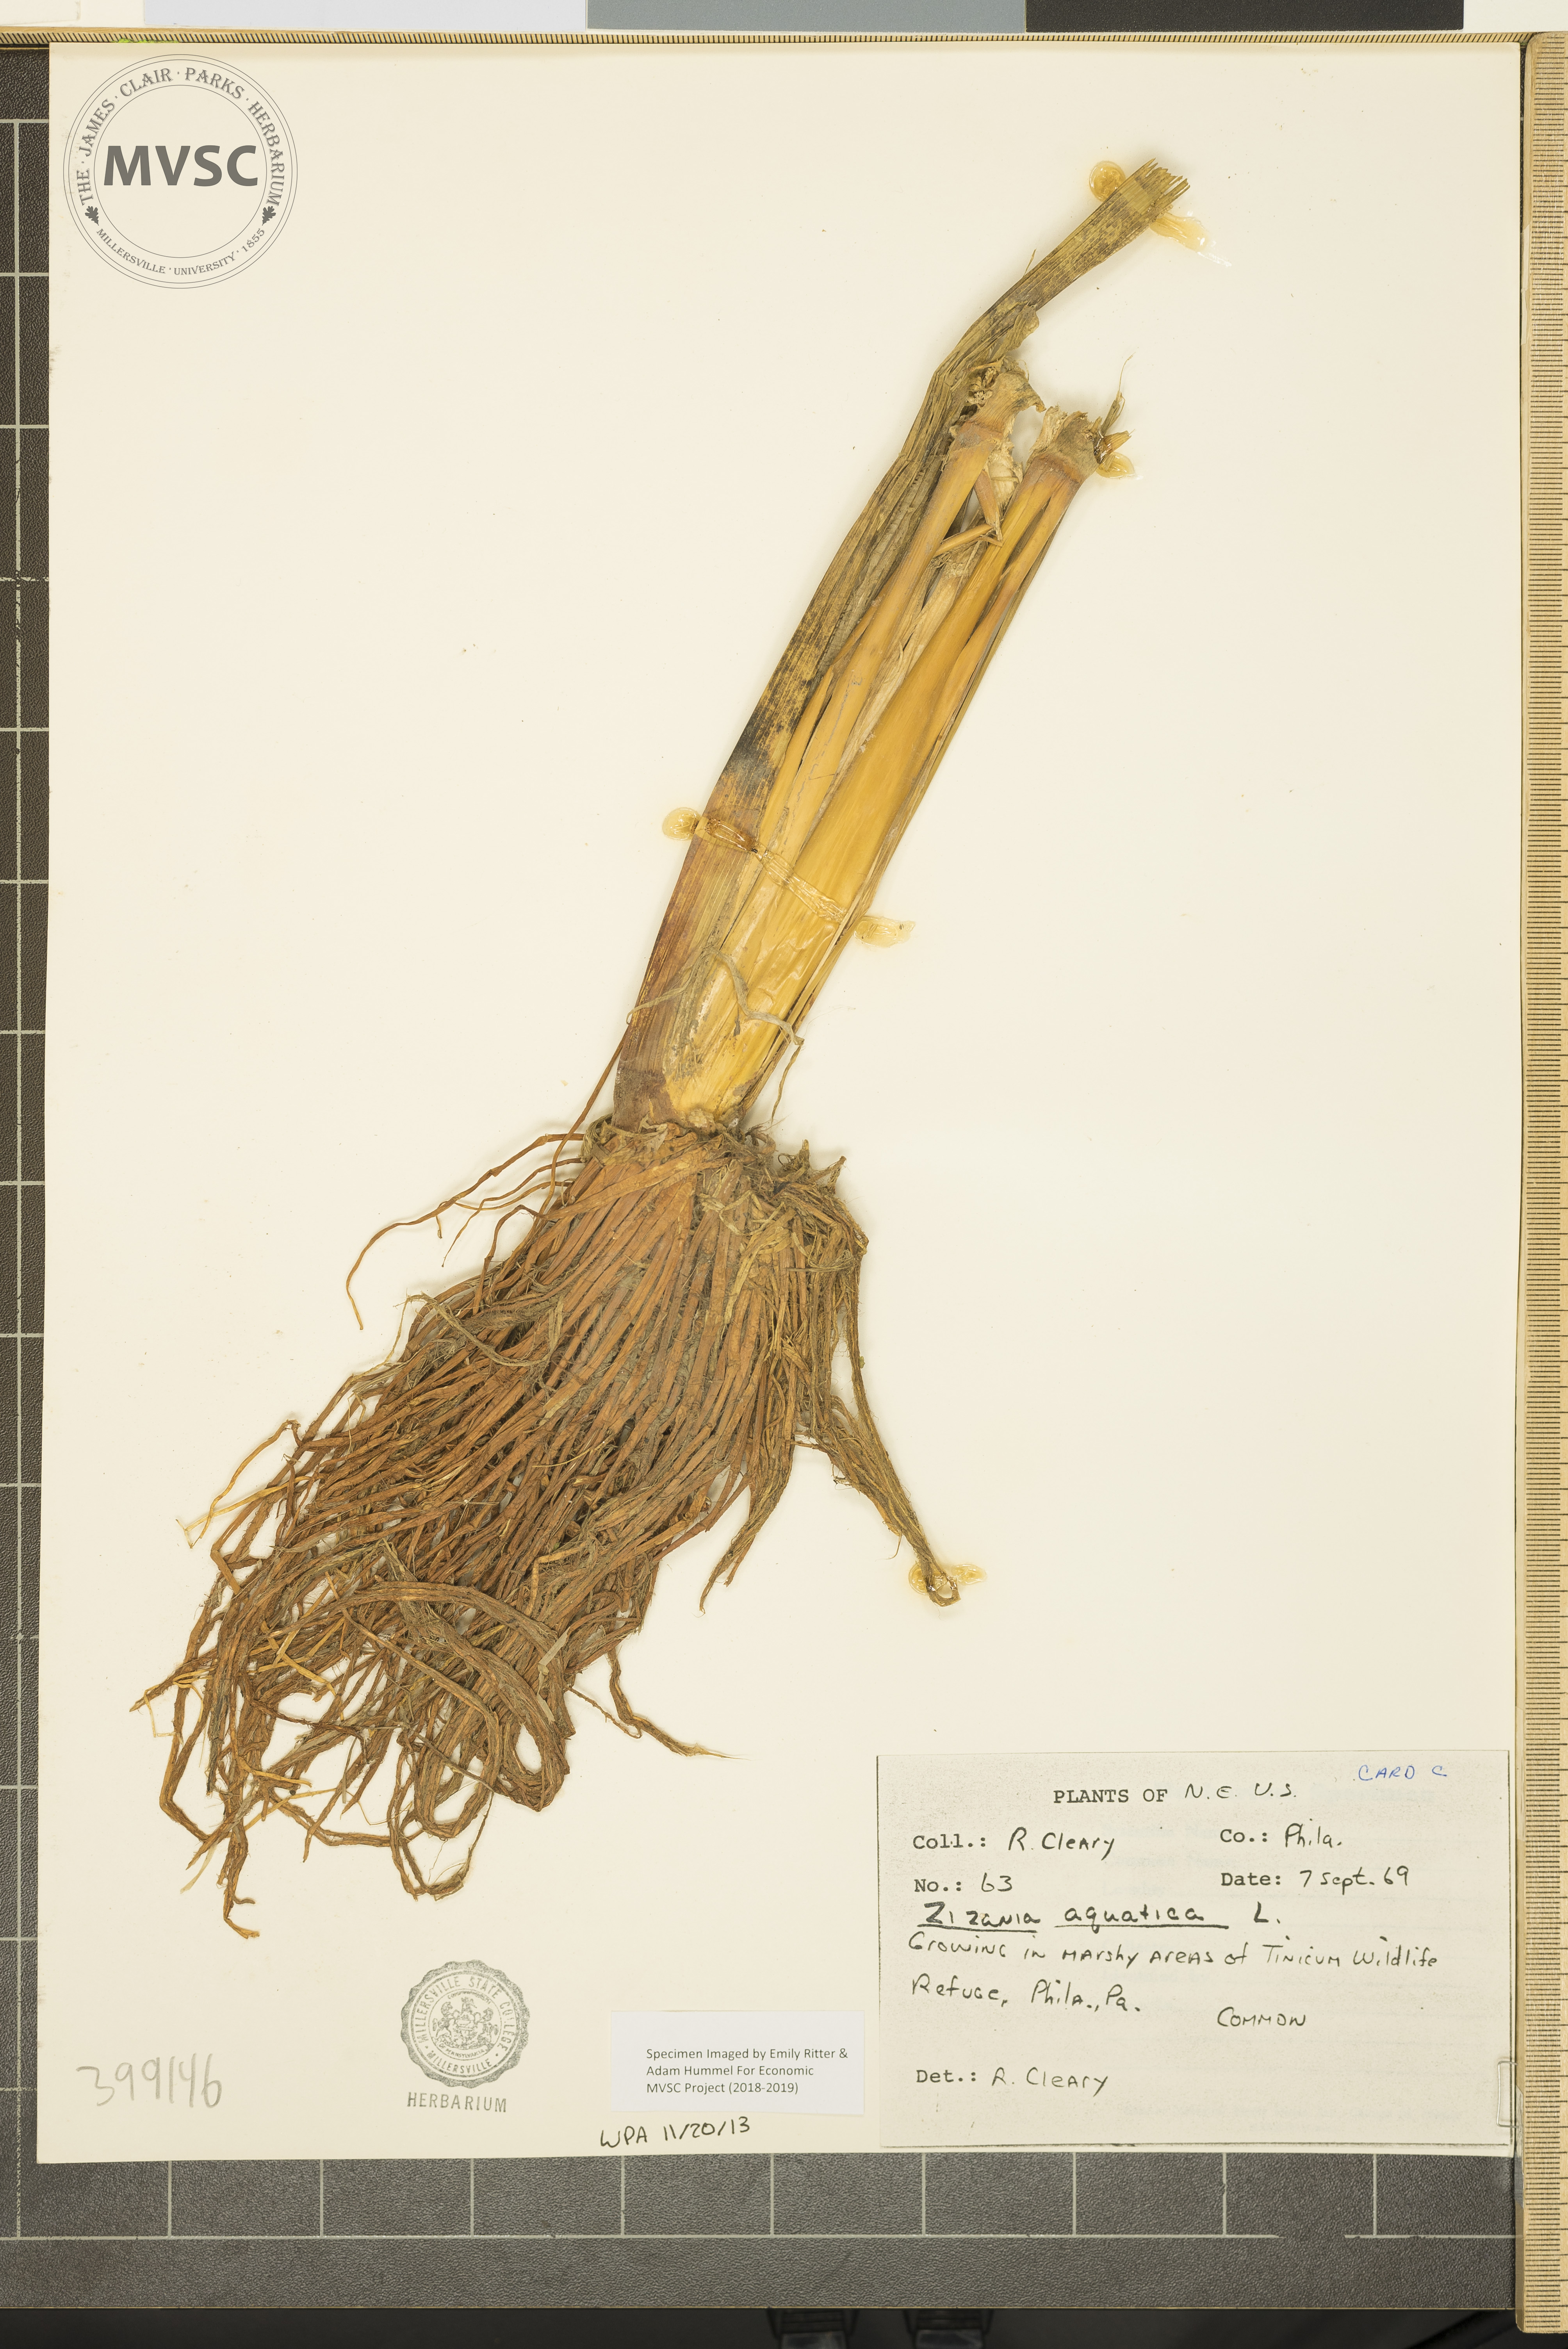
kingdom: Plantae
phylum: Tracheophyta
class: Liliopsida
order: Poales
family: Poaceae
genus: Zizania
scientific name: Zizania aquatica
